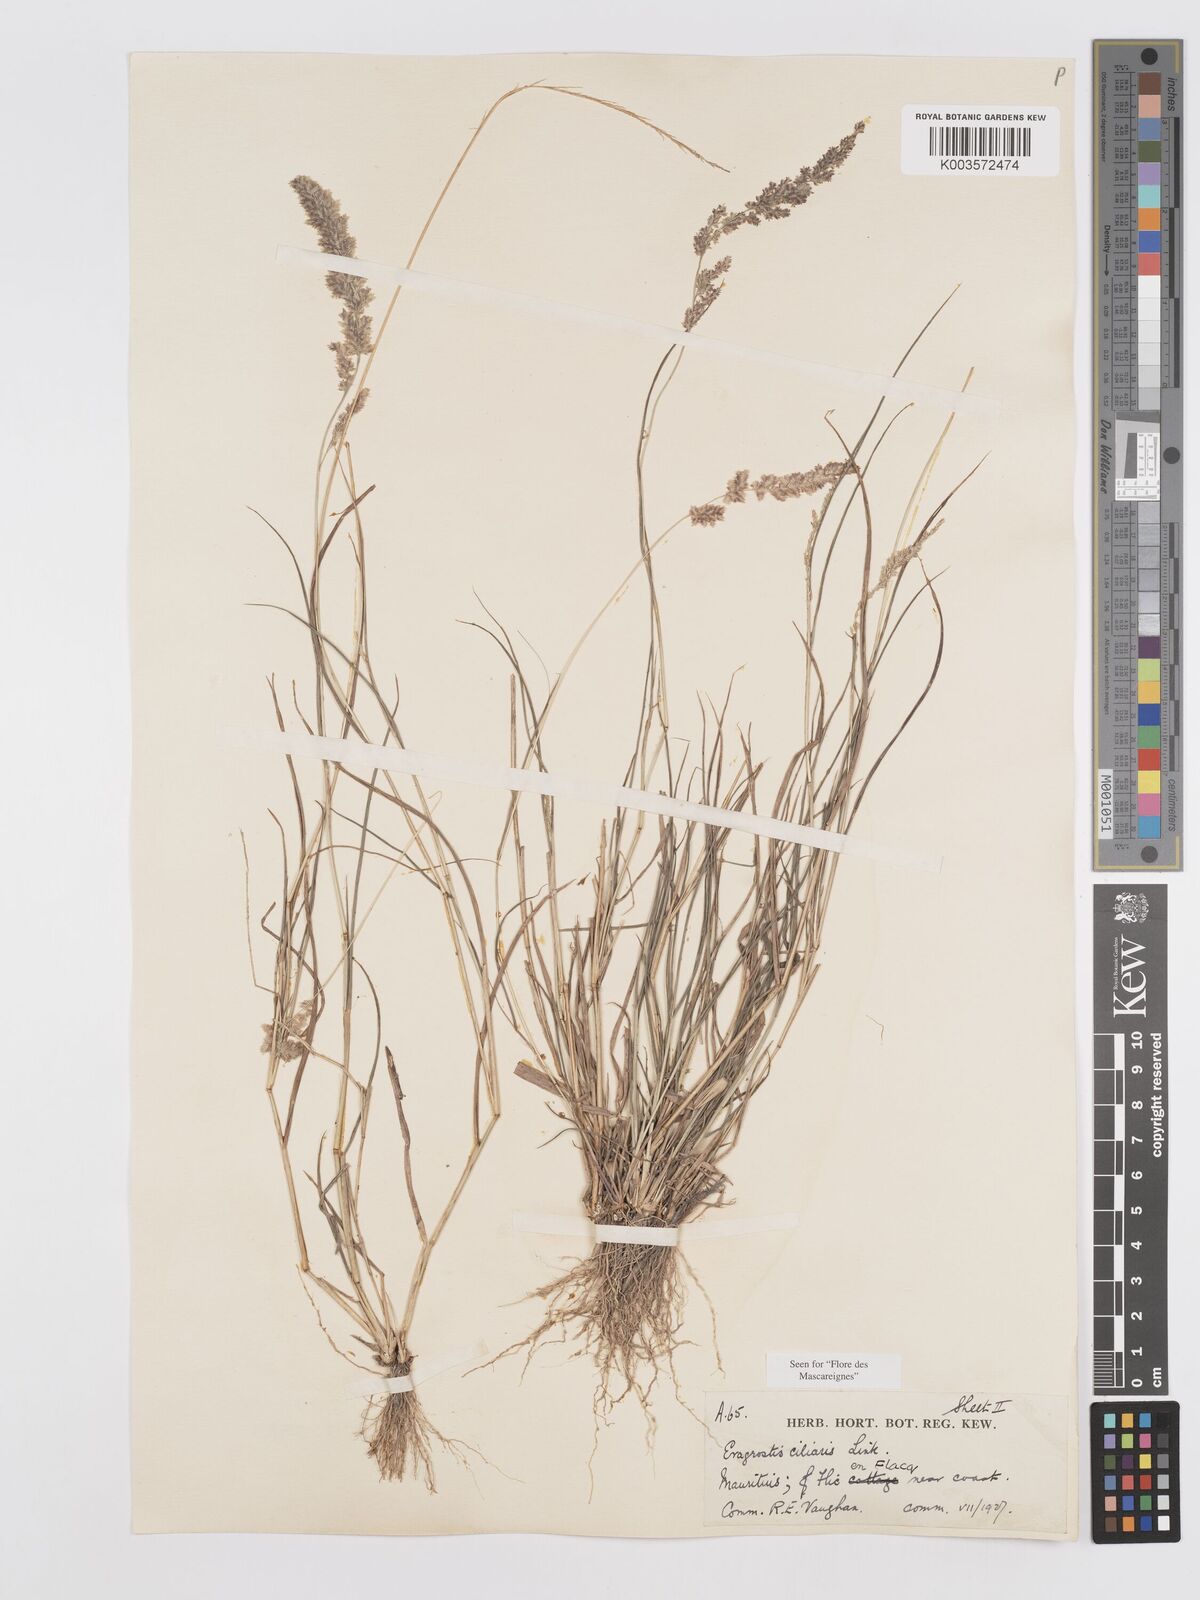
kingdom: Plantae
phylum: Tracheophyta
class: Liliopsida
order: Poales
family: Poaceae
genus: Eragrostis
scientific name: Eragrostis ciliaris
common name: Gophertail lovegrass
